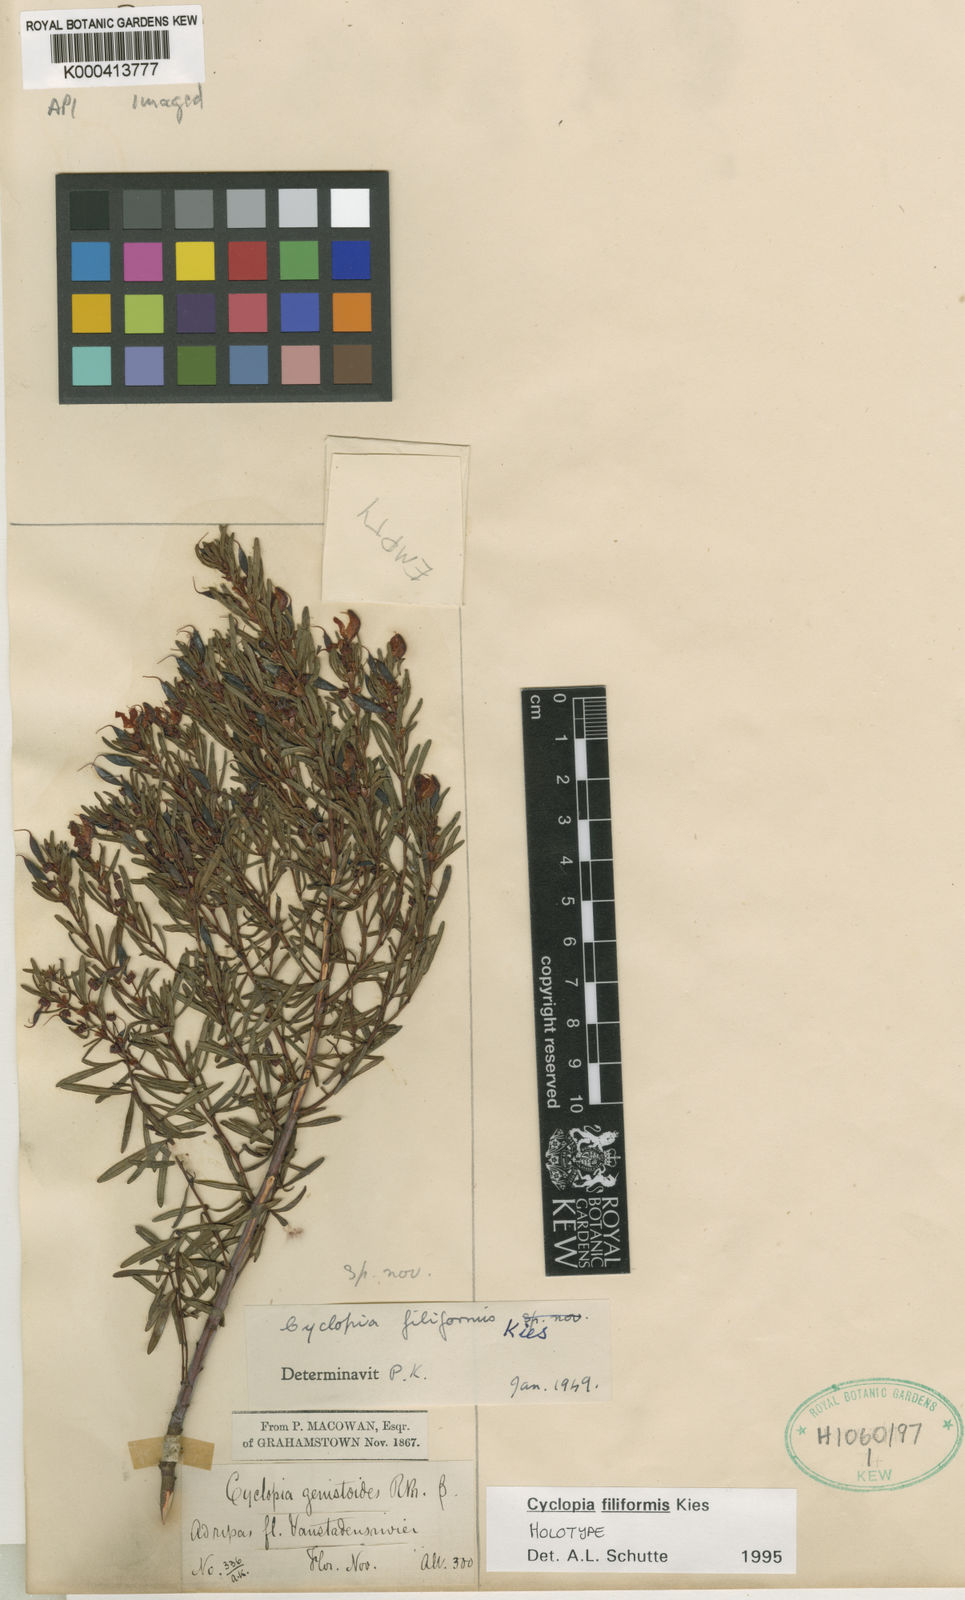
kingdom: Plantae
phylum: Tracheophyta
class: Magnoliopsida
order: Fabales
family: Fabaceae
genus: Cyclopia
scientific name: Cyclopia filiformis
